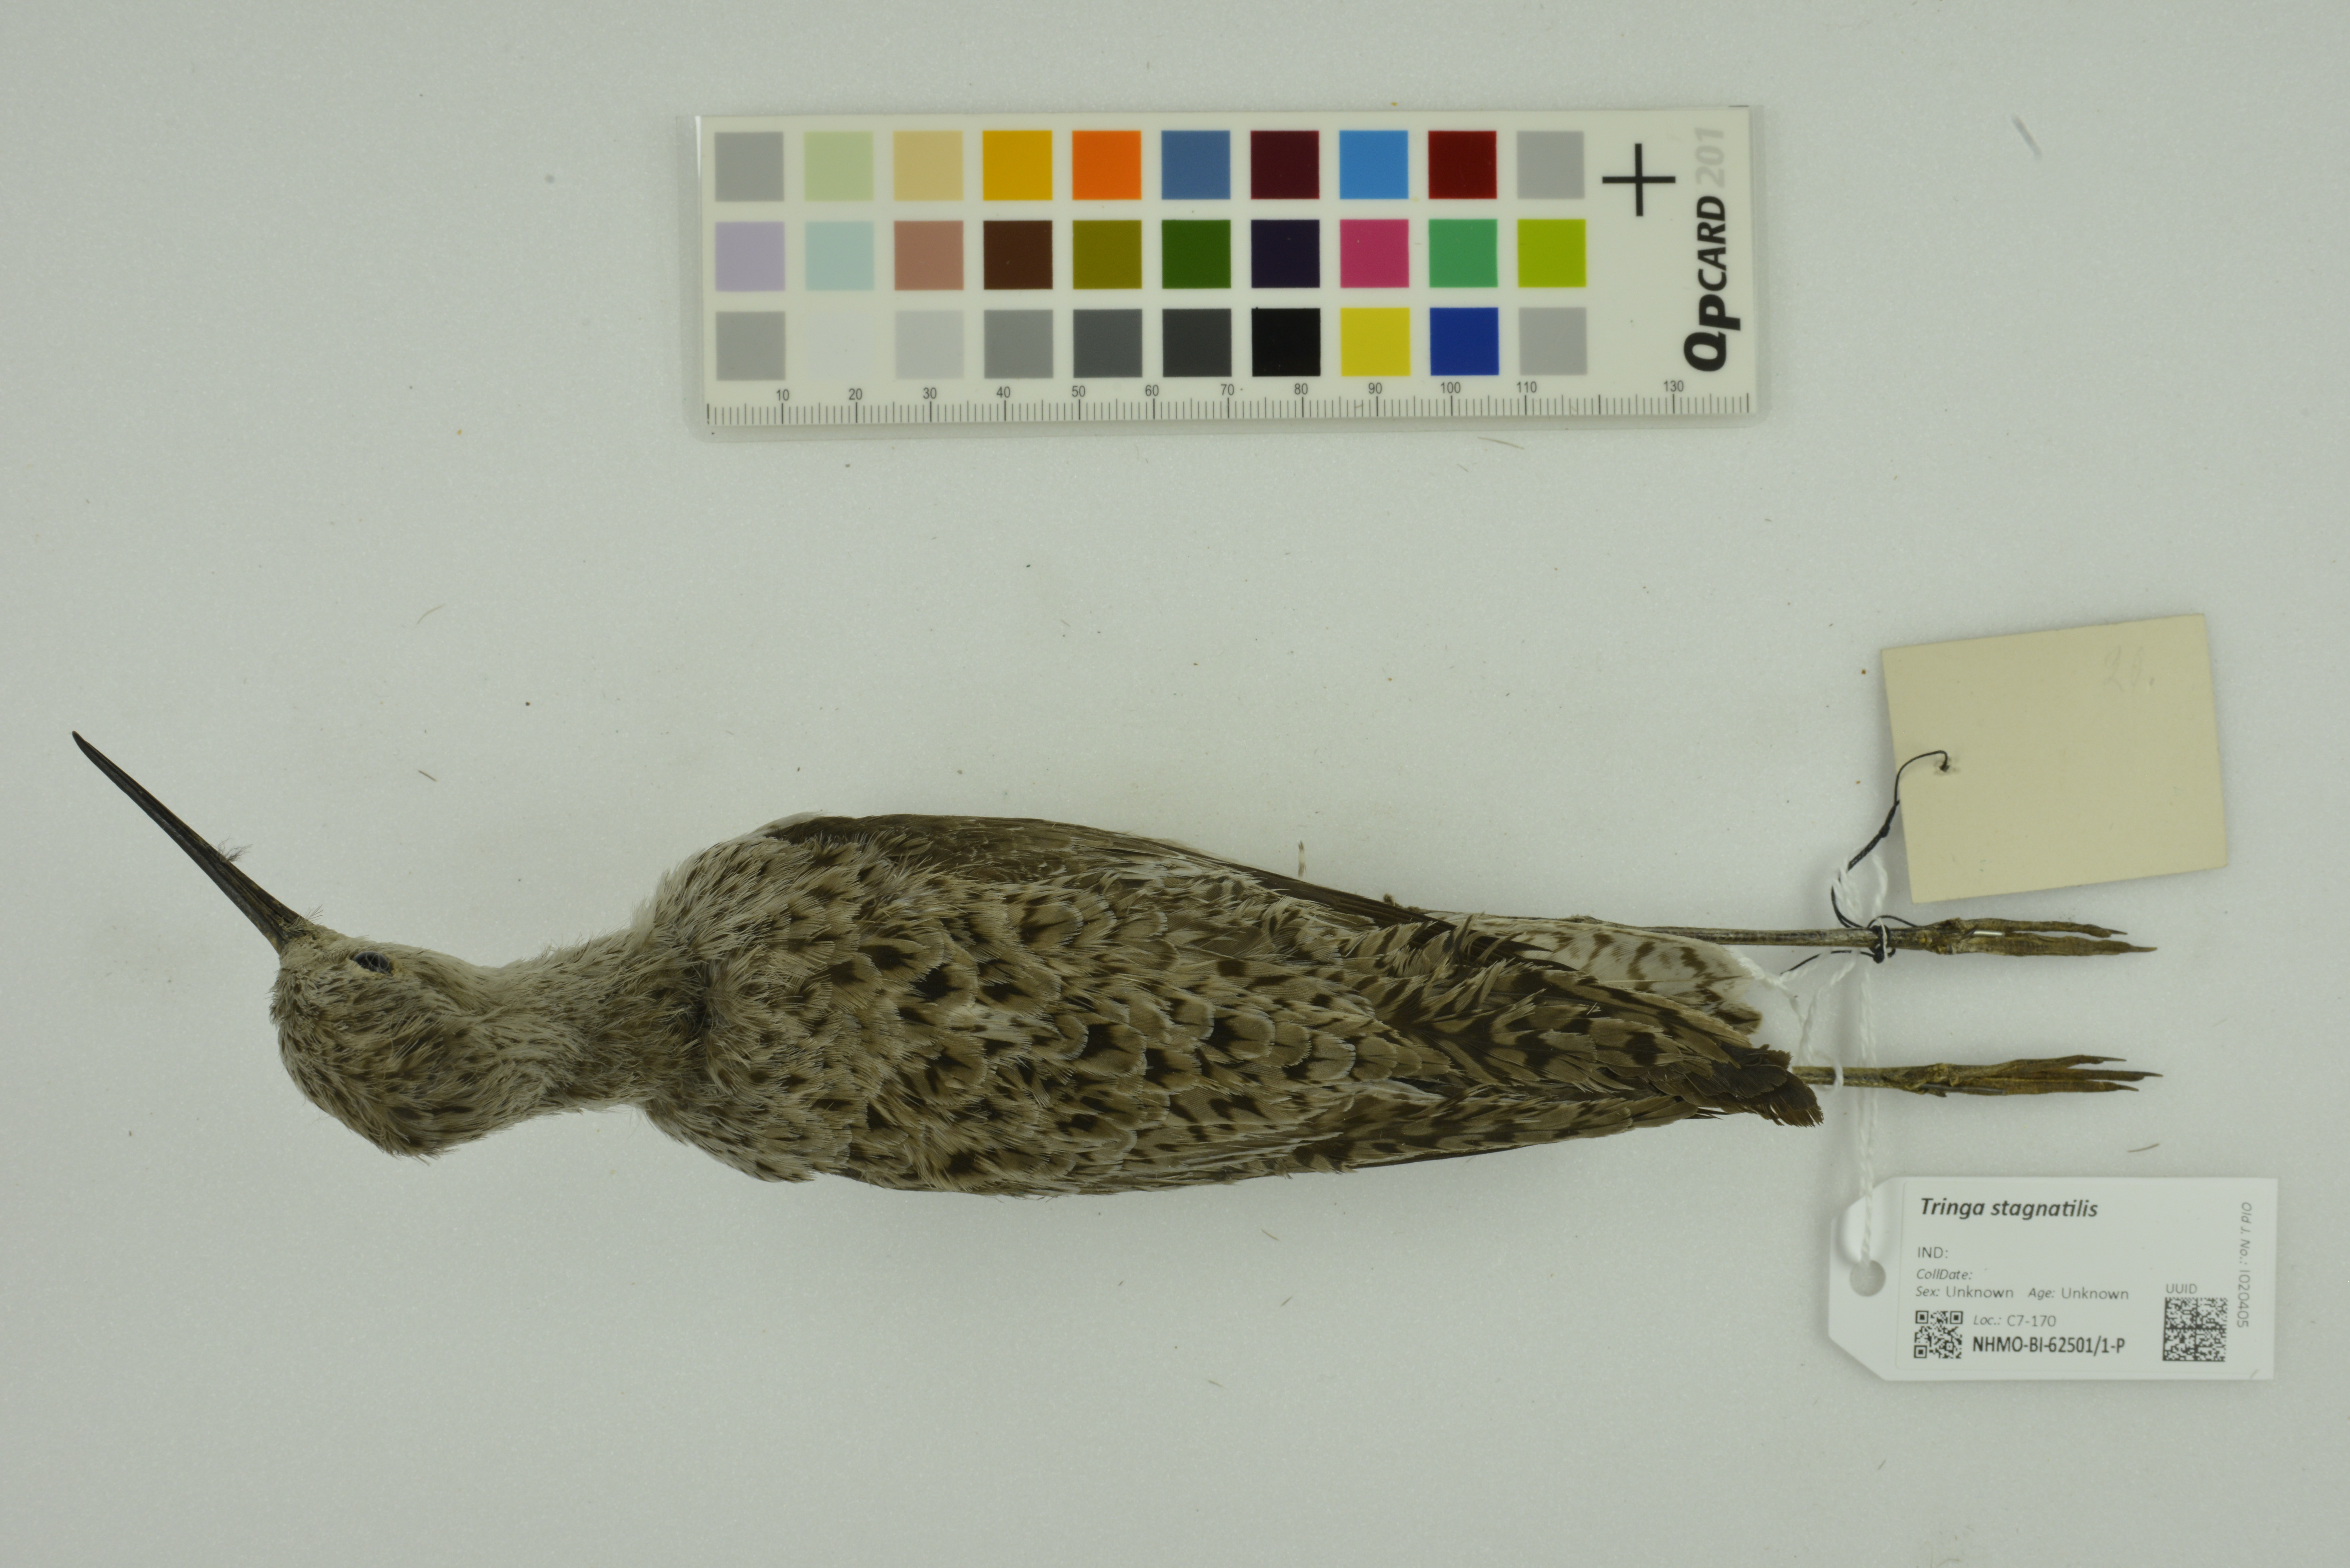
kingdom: Animalia
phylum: Chordata
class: Aves
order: Charadriiformes
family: Scolopacidae
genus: Tringa
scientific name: Tringa stagnatilis
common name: Marsh sandpiper
